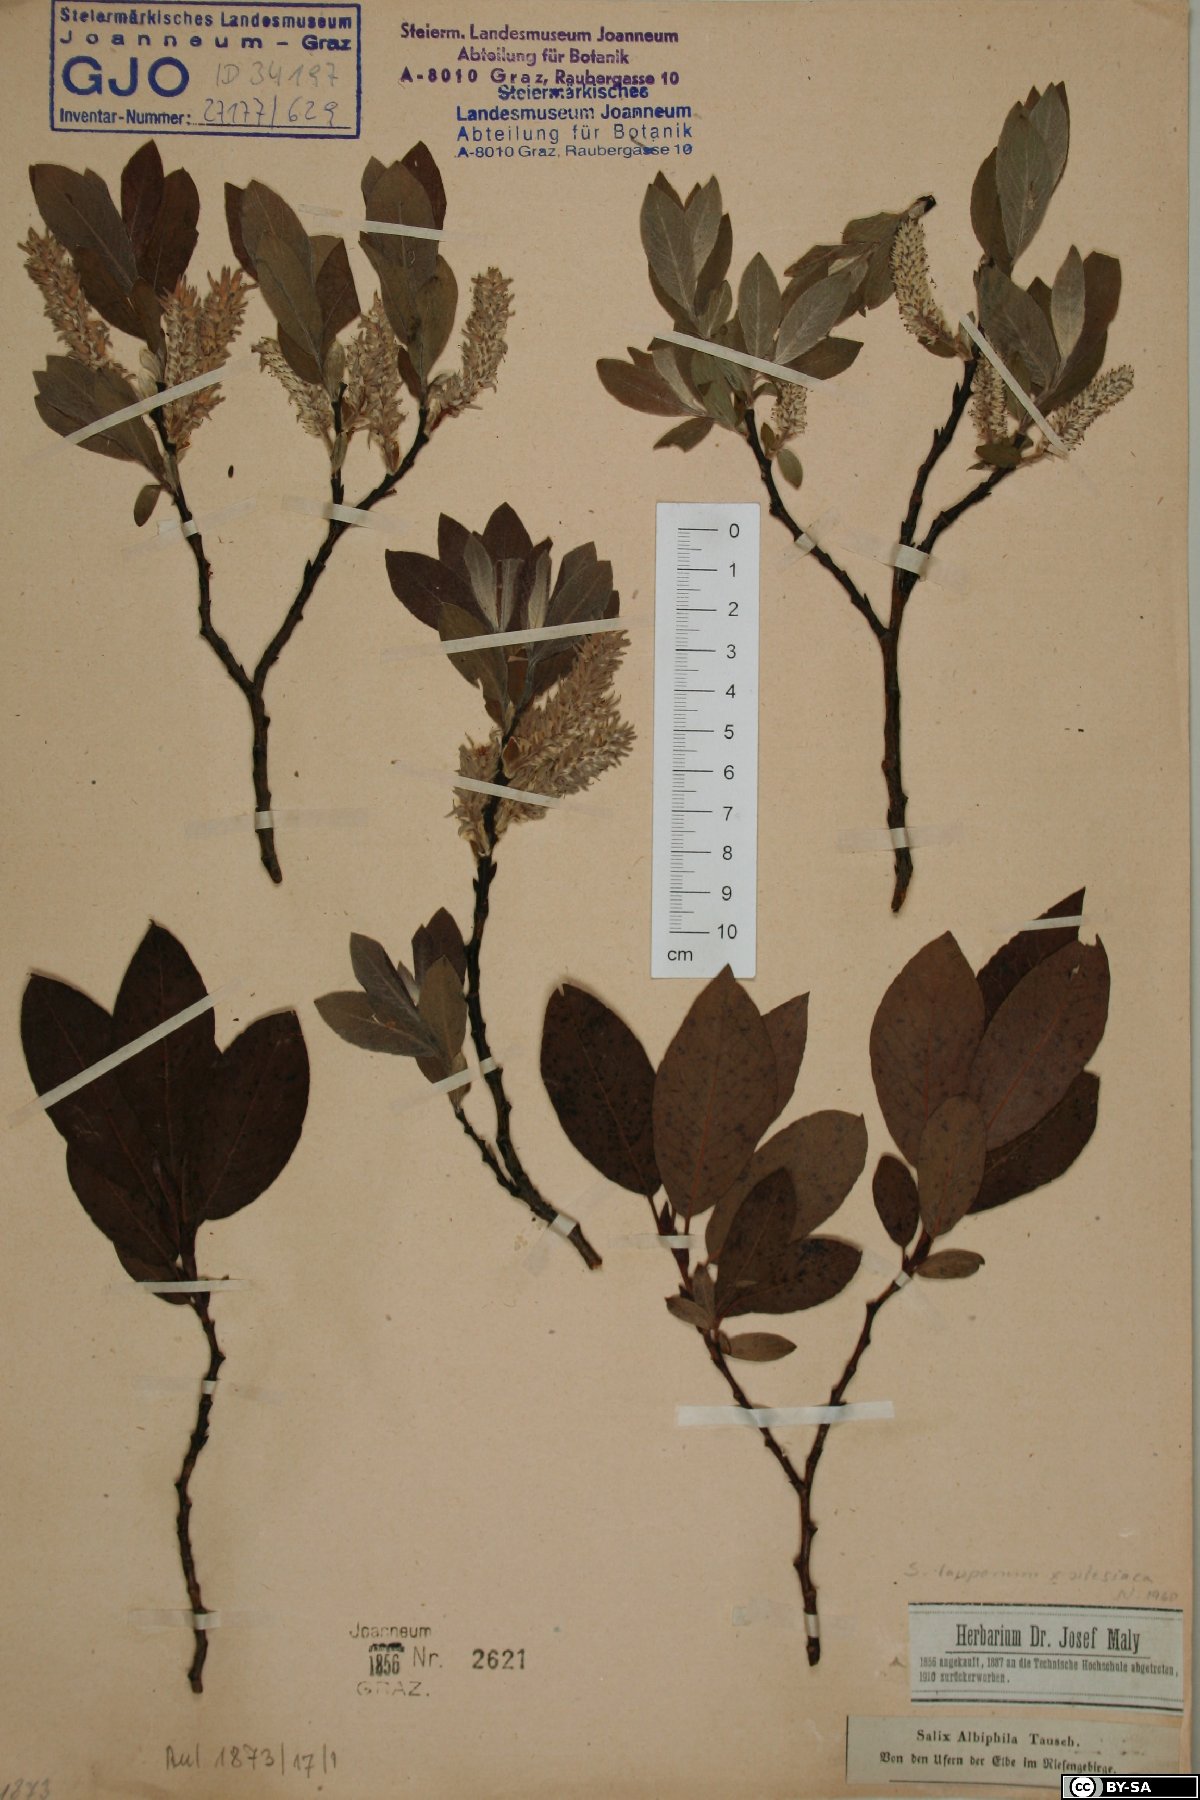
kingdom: Plantae
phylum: Tracheophyta
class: Magnoliopsida
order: Malpighiales
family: Salicaceae
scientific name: Salicaceae
